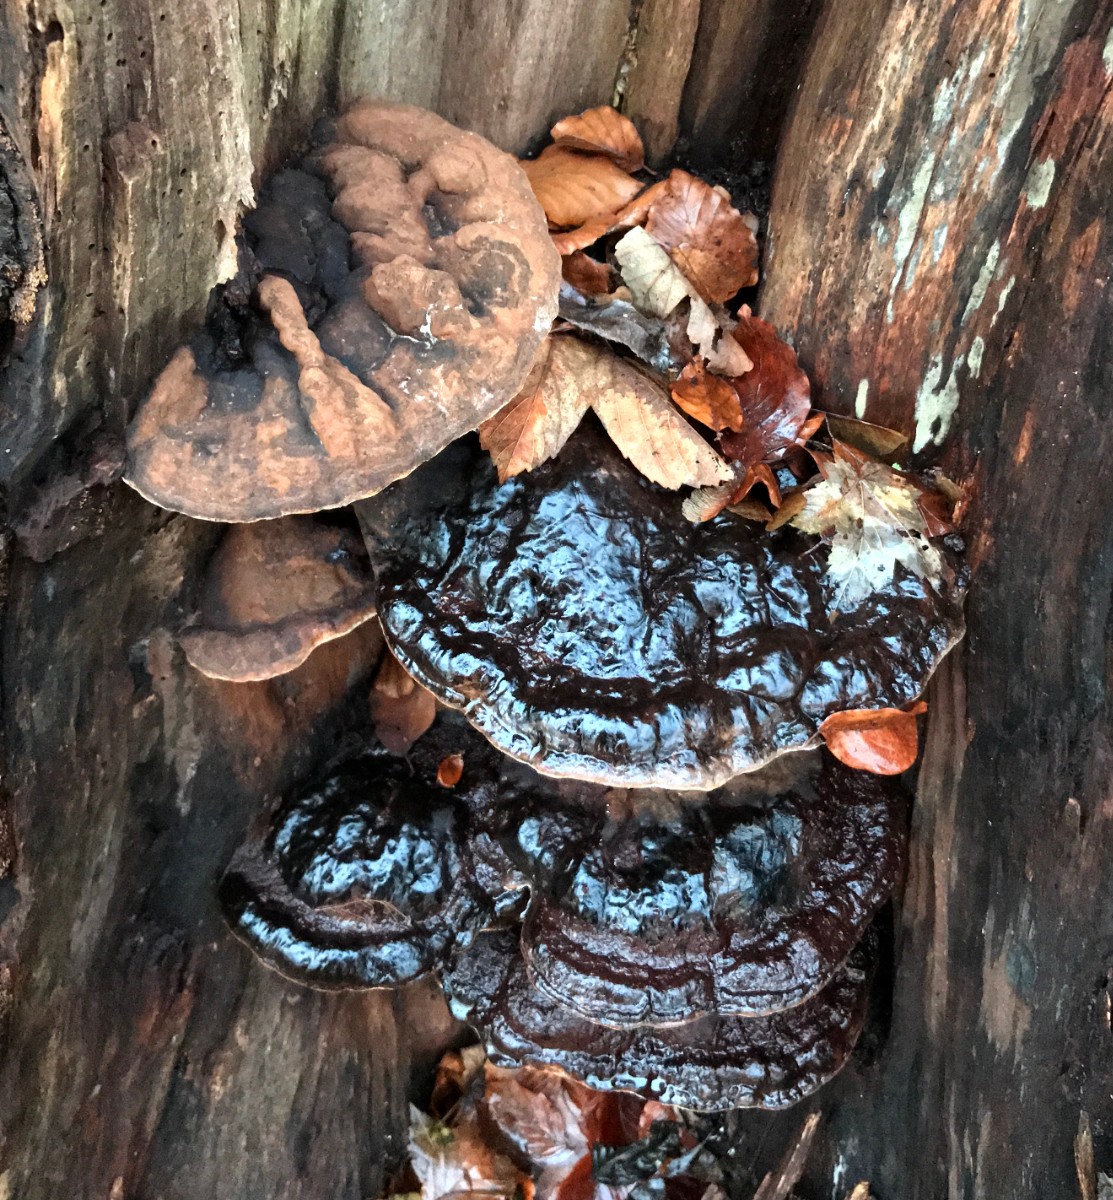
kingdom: Fungi
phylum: Basidiomycota
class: Agaricomycetes
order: Polyporales
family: Polyporaceae
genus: Ganoderma
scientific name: Ganoderma adspersum
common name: grov lakporesvamp
